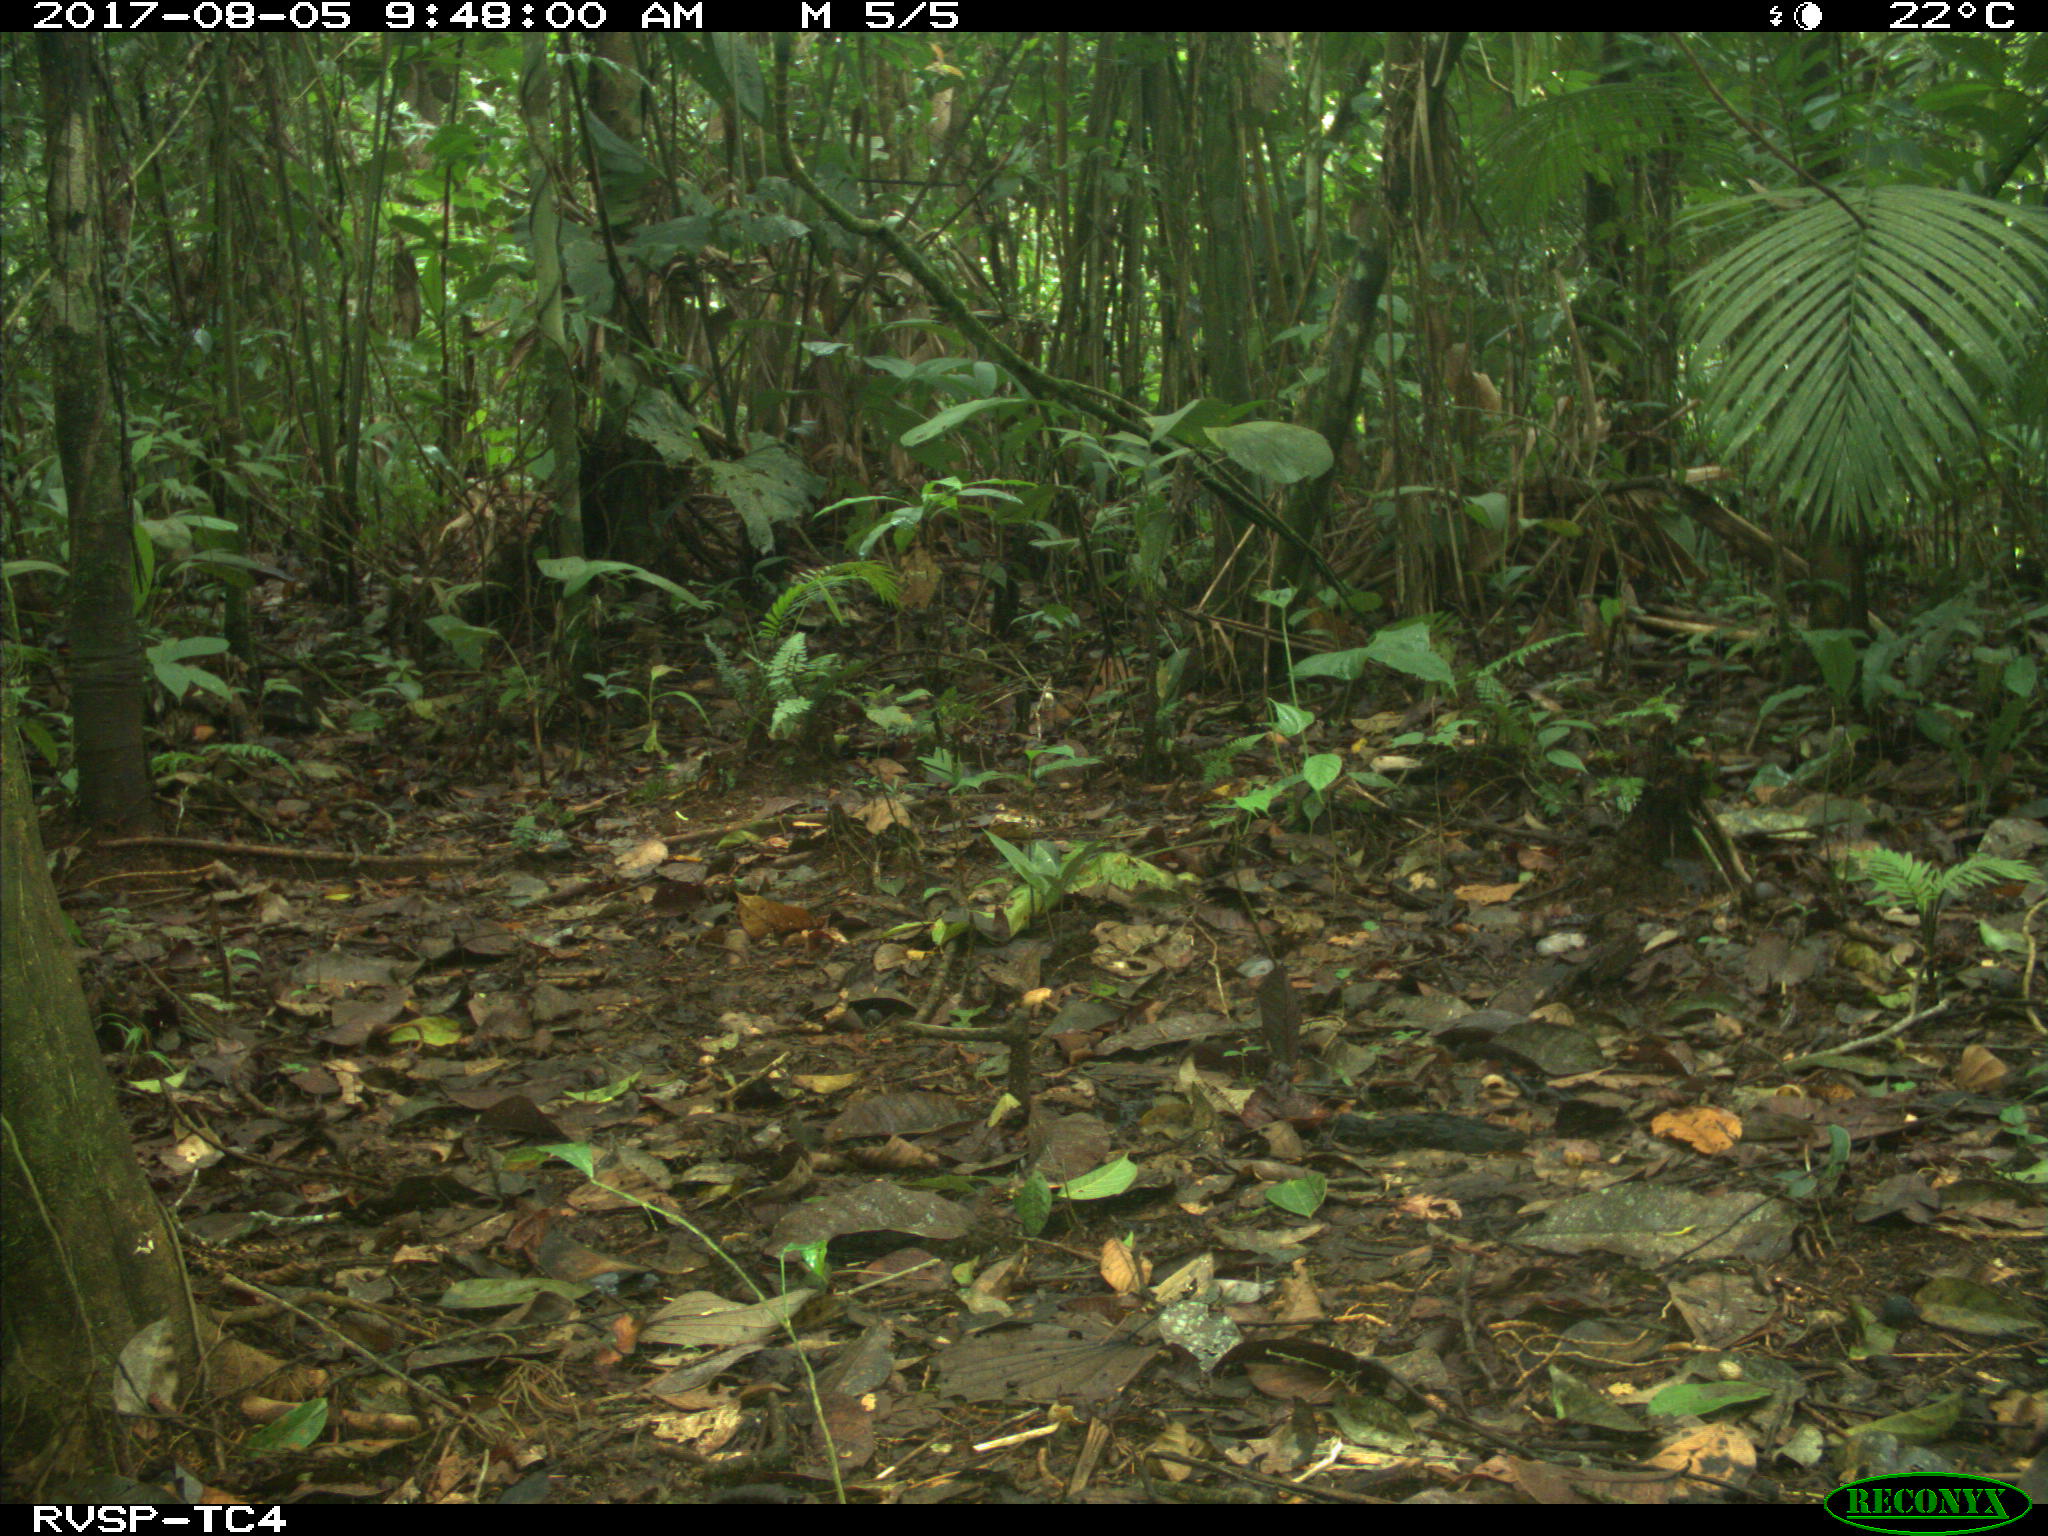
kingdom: Animalia
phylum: Chordata
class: Mammalia
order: Carnivora
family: Procyonidae
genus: Procyon
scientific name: Procyon cancrivorus
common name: Crab-eating raccoon
